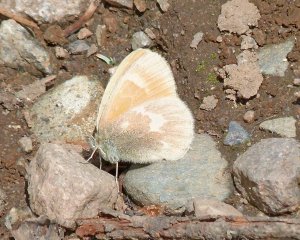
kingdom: Animalia
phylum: Arthropoda
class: Insecta
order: Lepidoptera
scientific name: Lepidoptera
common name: Butterflies
